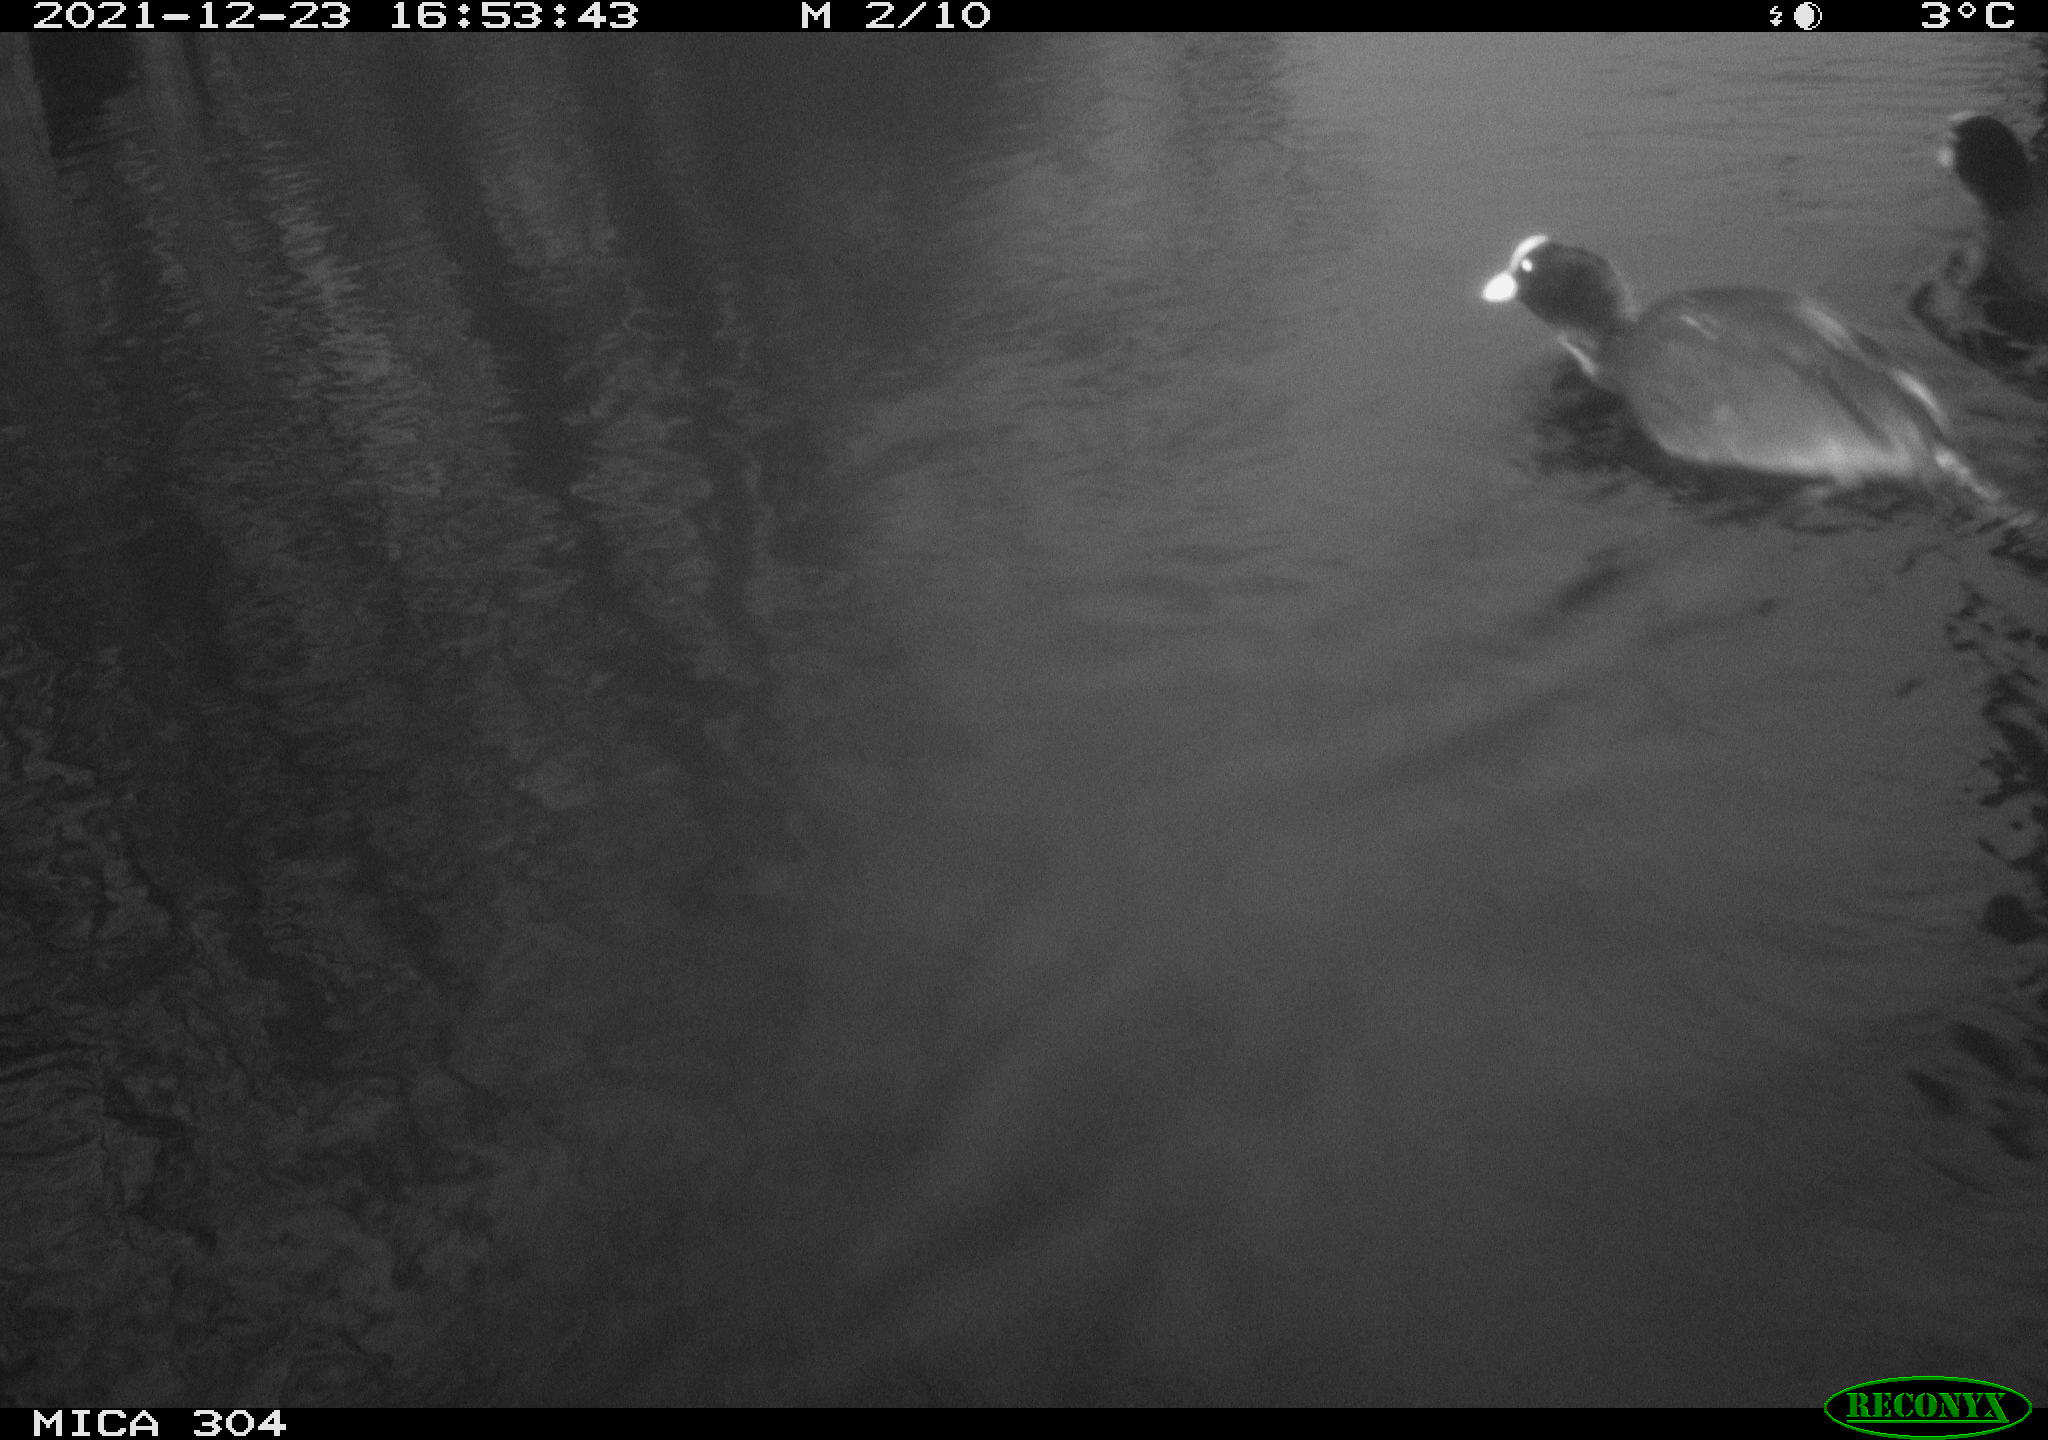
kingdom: Animalia
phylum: Chordata
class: Aves
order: Gruiformes
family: Rallidae
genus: Fulica
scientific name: Fulica atra
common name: Eurasian coot
